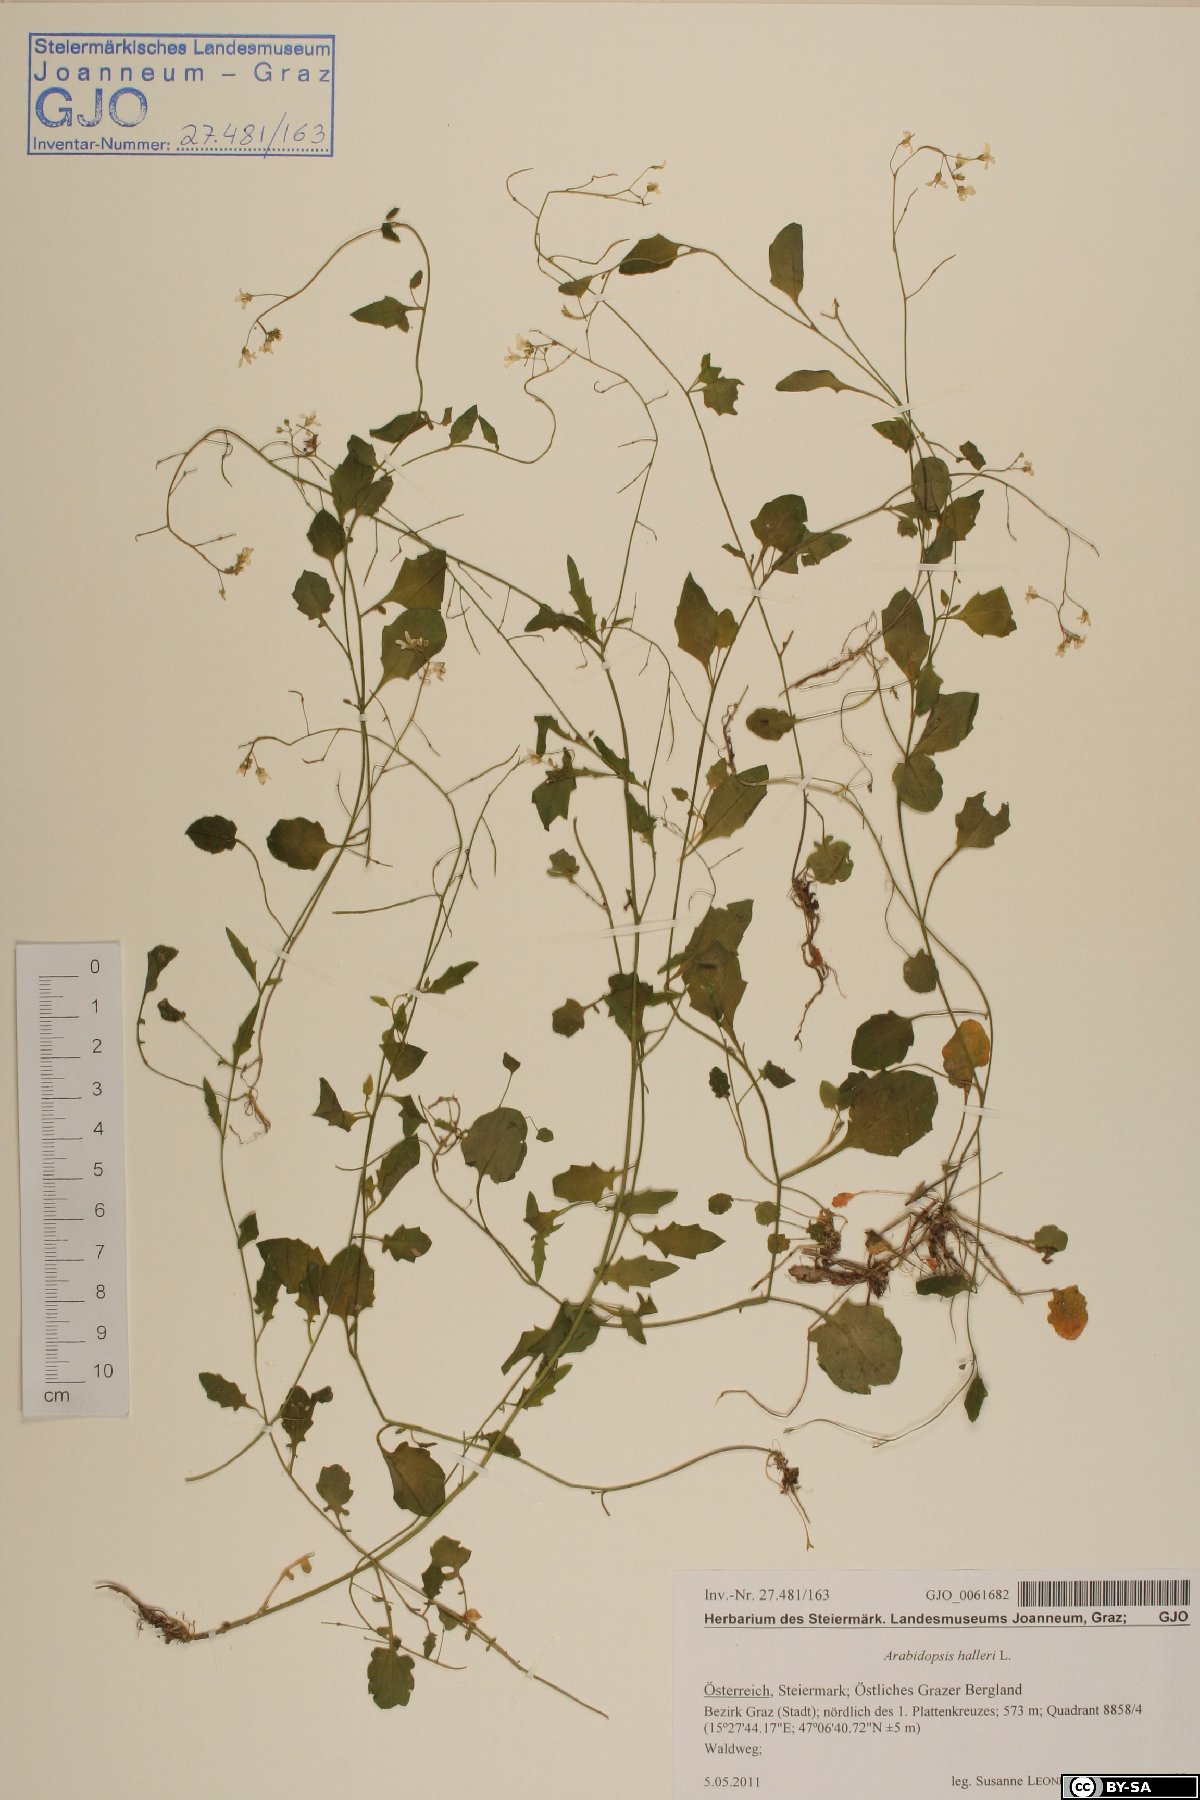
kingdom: Plantae
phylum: Tracheophyta
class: Magnoliopsida
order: Brassicales
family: Brassicaceae
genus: Arabidopsis
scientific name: Arabidopsis halleri
